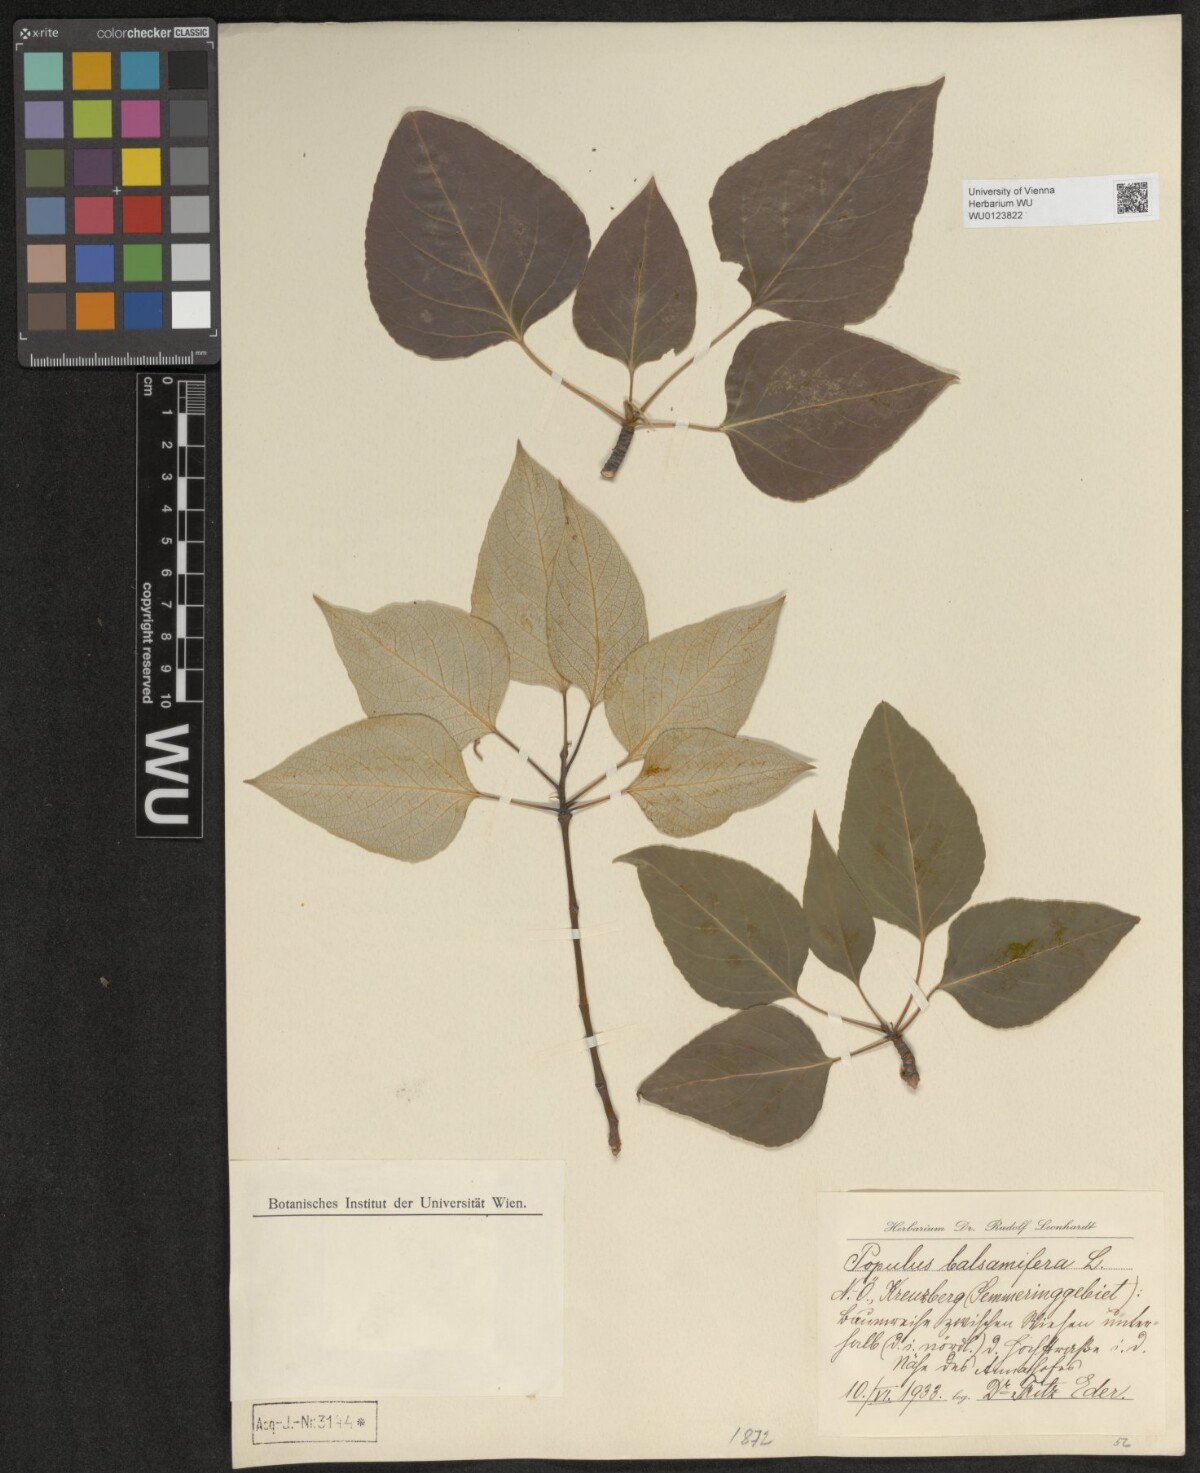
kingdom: Plantae
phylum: Tracheophyta
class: Magnoliopsida
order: Malpighiales
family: Salicaceae
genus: Populus
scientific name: Populus balsamifera
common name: Balsam poplar
